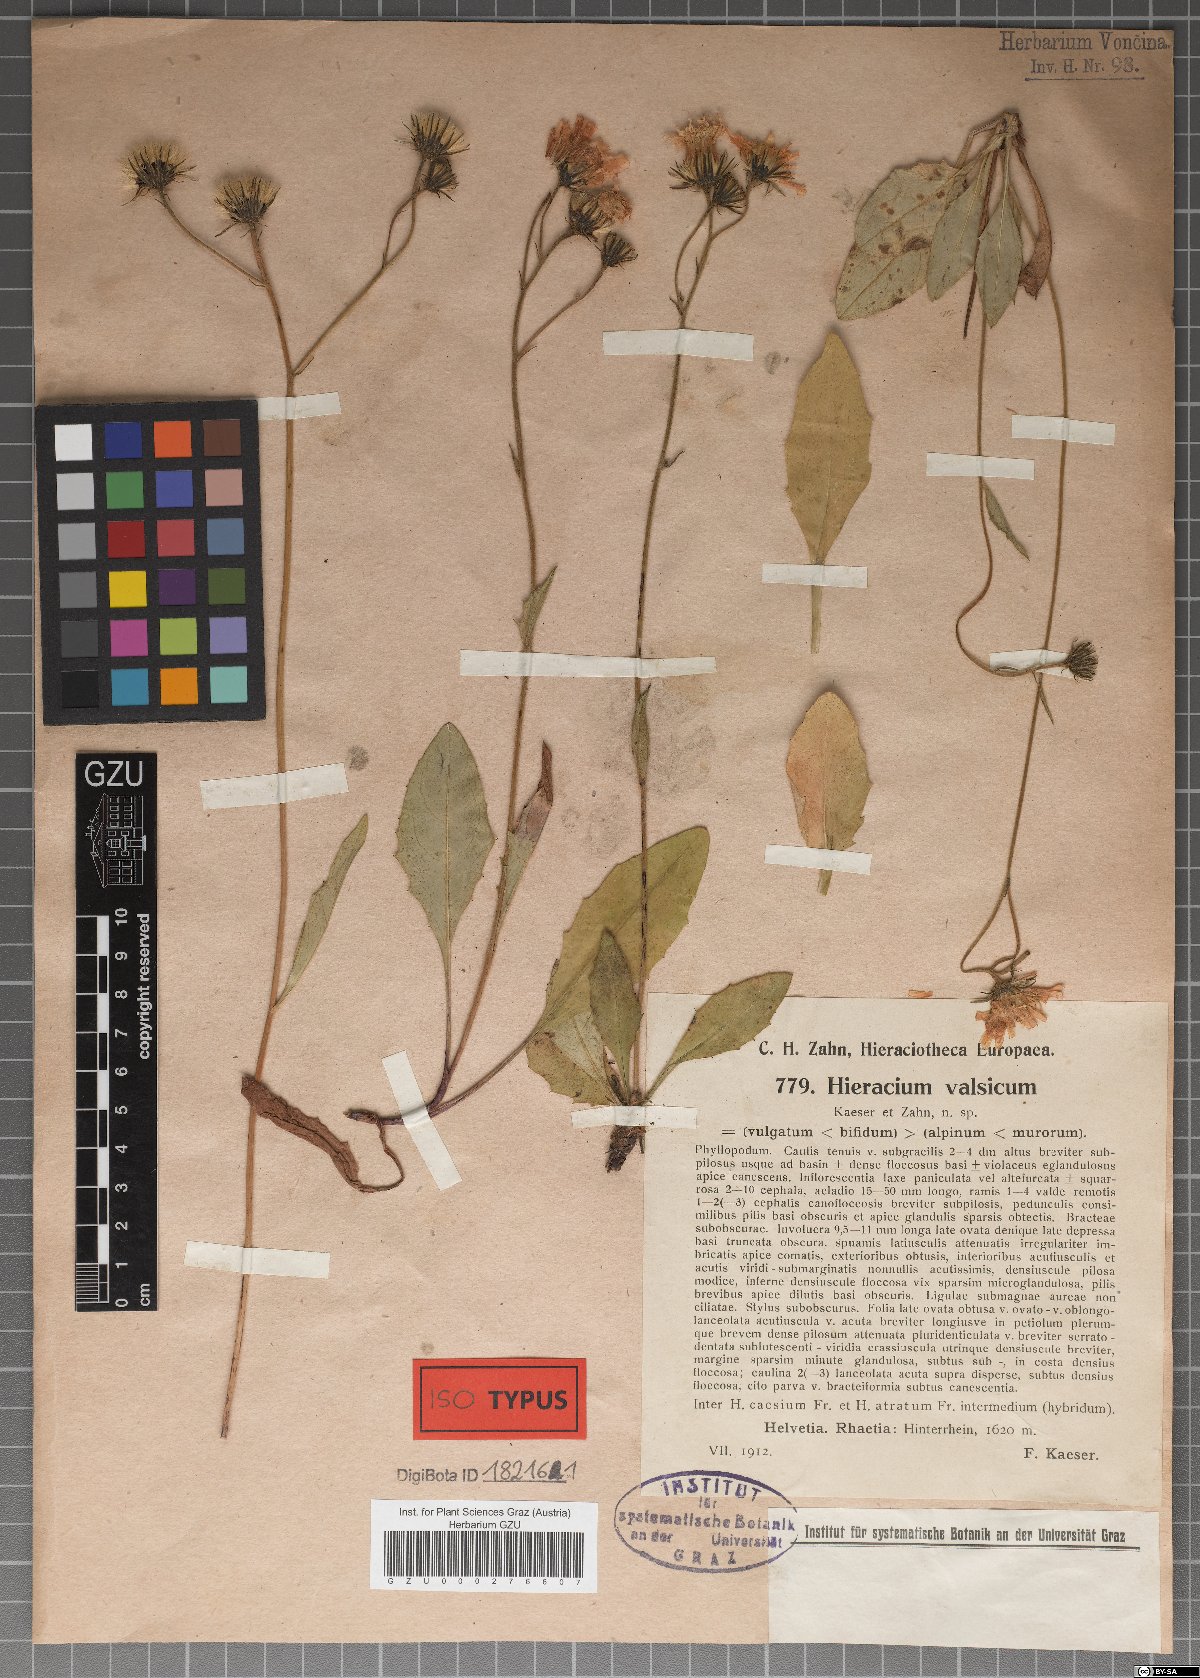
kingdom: Plantae
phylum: Tracheophyta
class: Magnoliopsida
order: Asterales
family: Asteraceae
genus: Hieracium
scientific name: Hieracium kuekenthalianum
